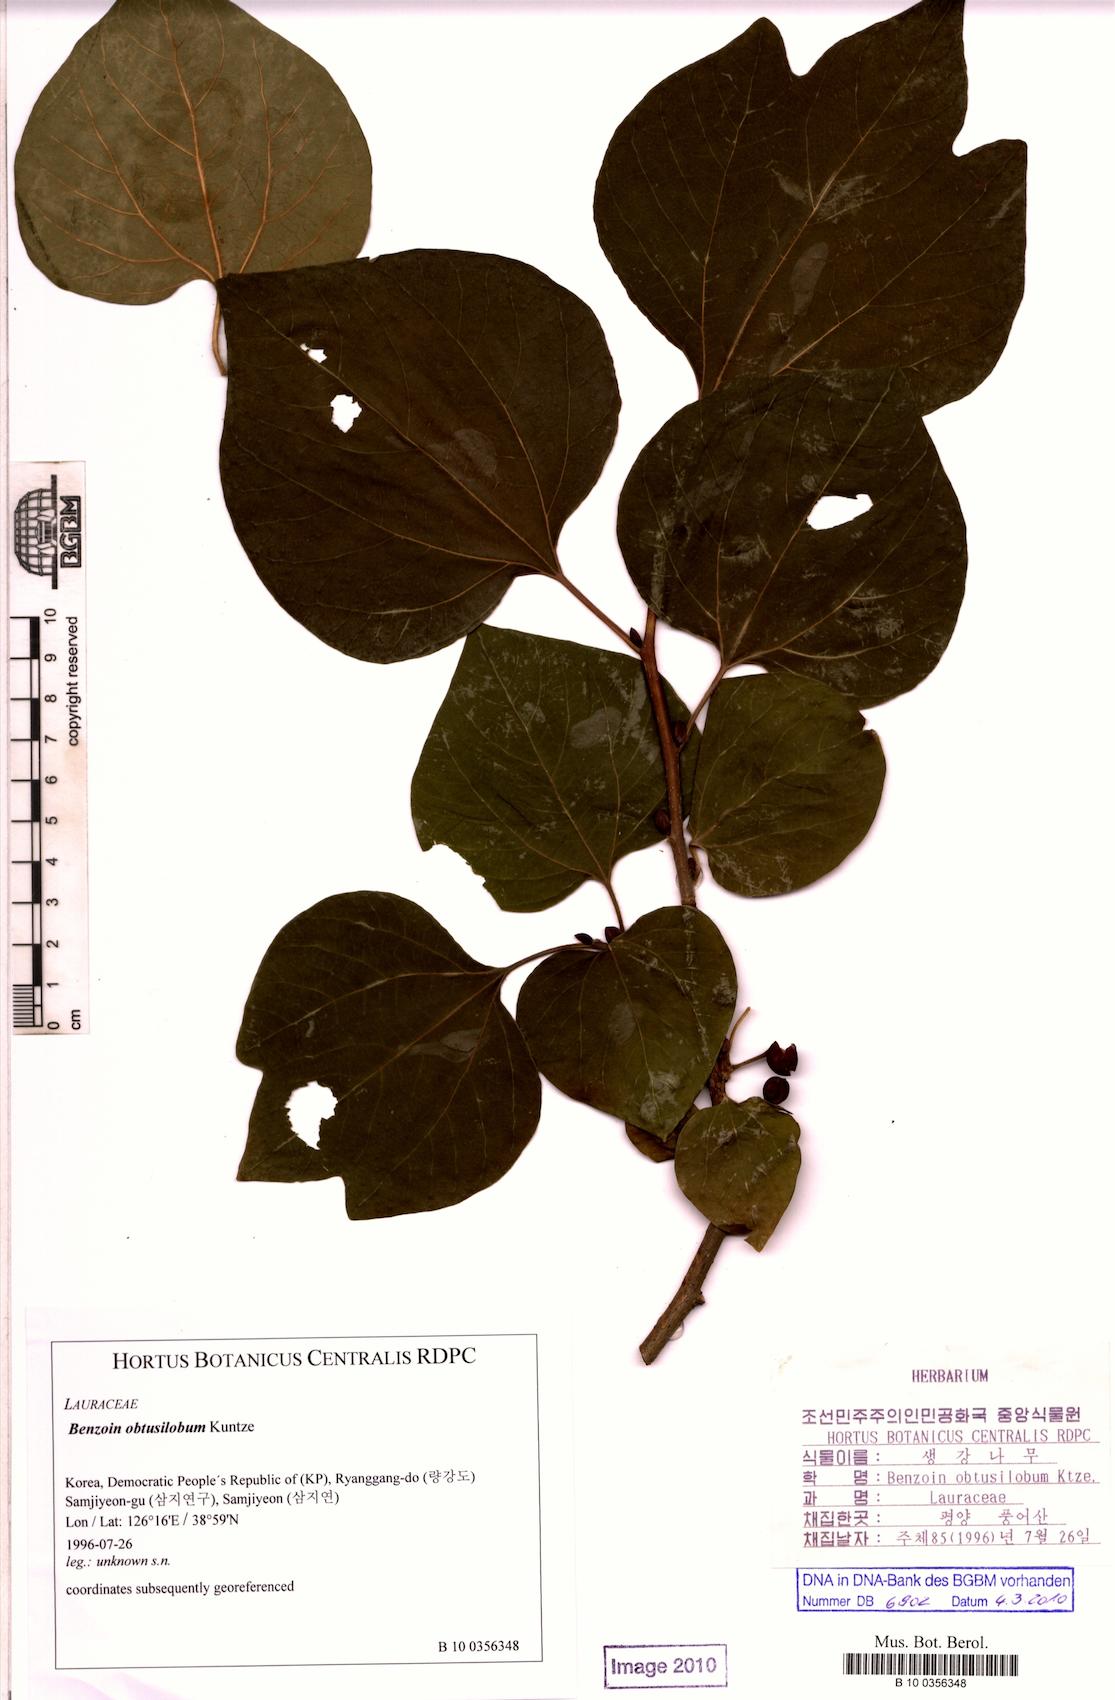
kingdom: Plantae
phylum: Tracheophyta
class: Magnoliopsida
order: Laurales
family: Lauraceae
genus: Lindera
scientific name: Lindera obtusiloba
